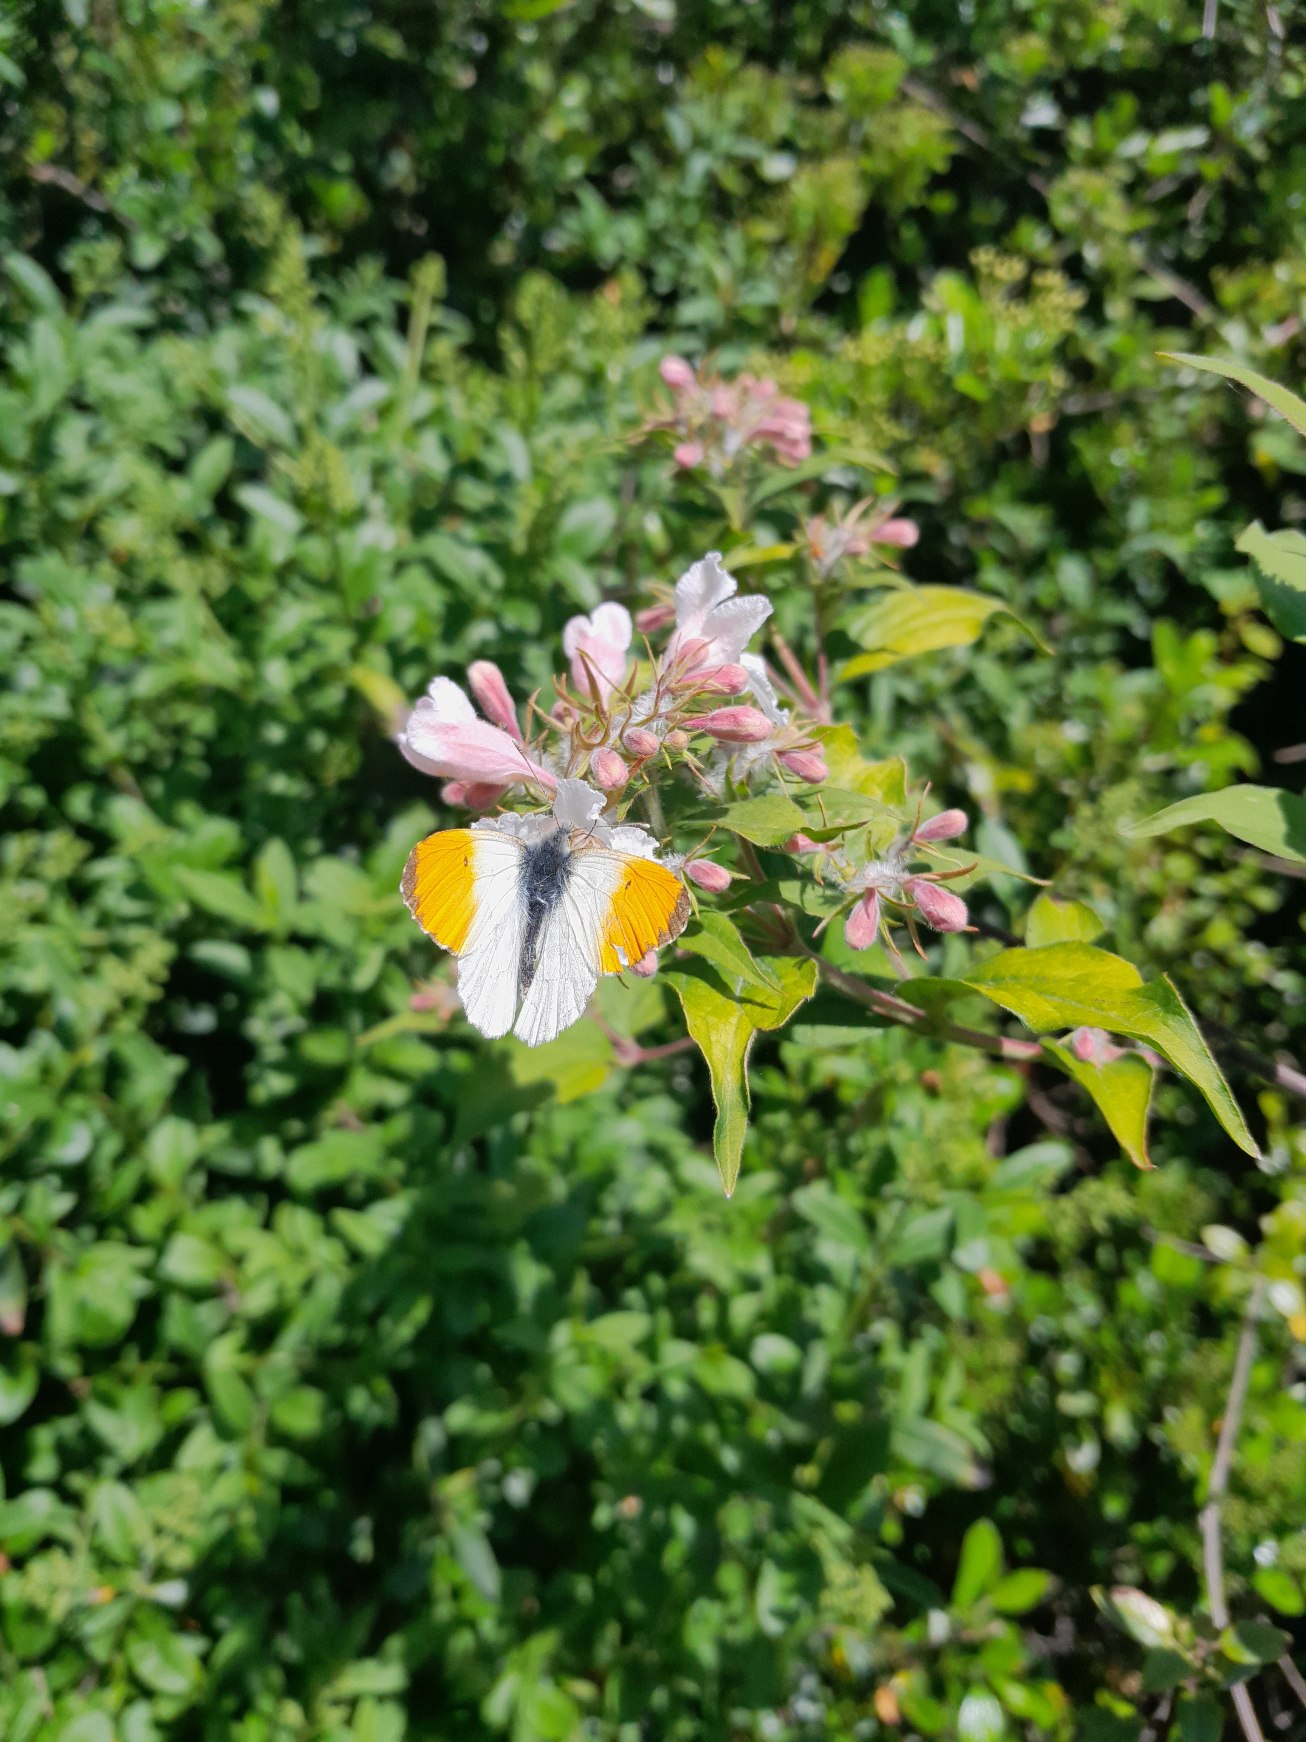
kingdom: Animalia
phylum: Arthropoda
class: Insecta
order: Lepidoptera
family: Pieridae
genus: Anthocharis
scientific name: Anthocharis cardamines
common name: Aurora
